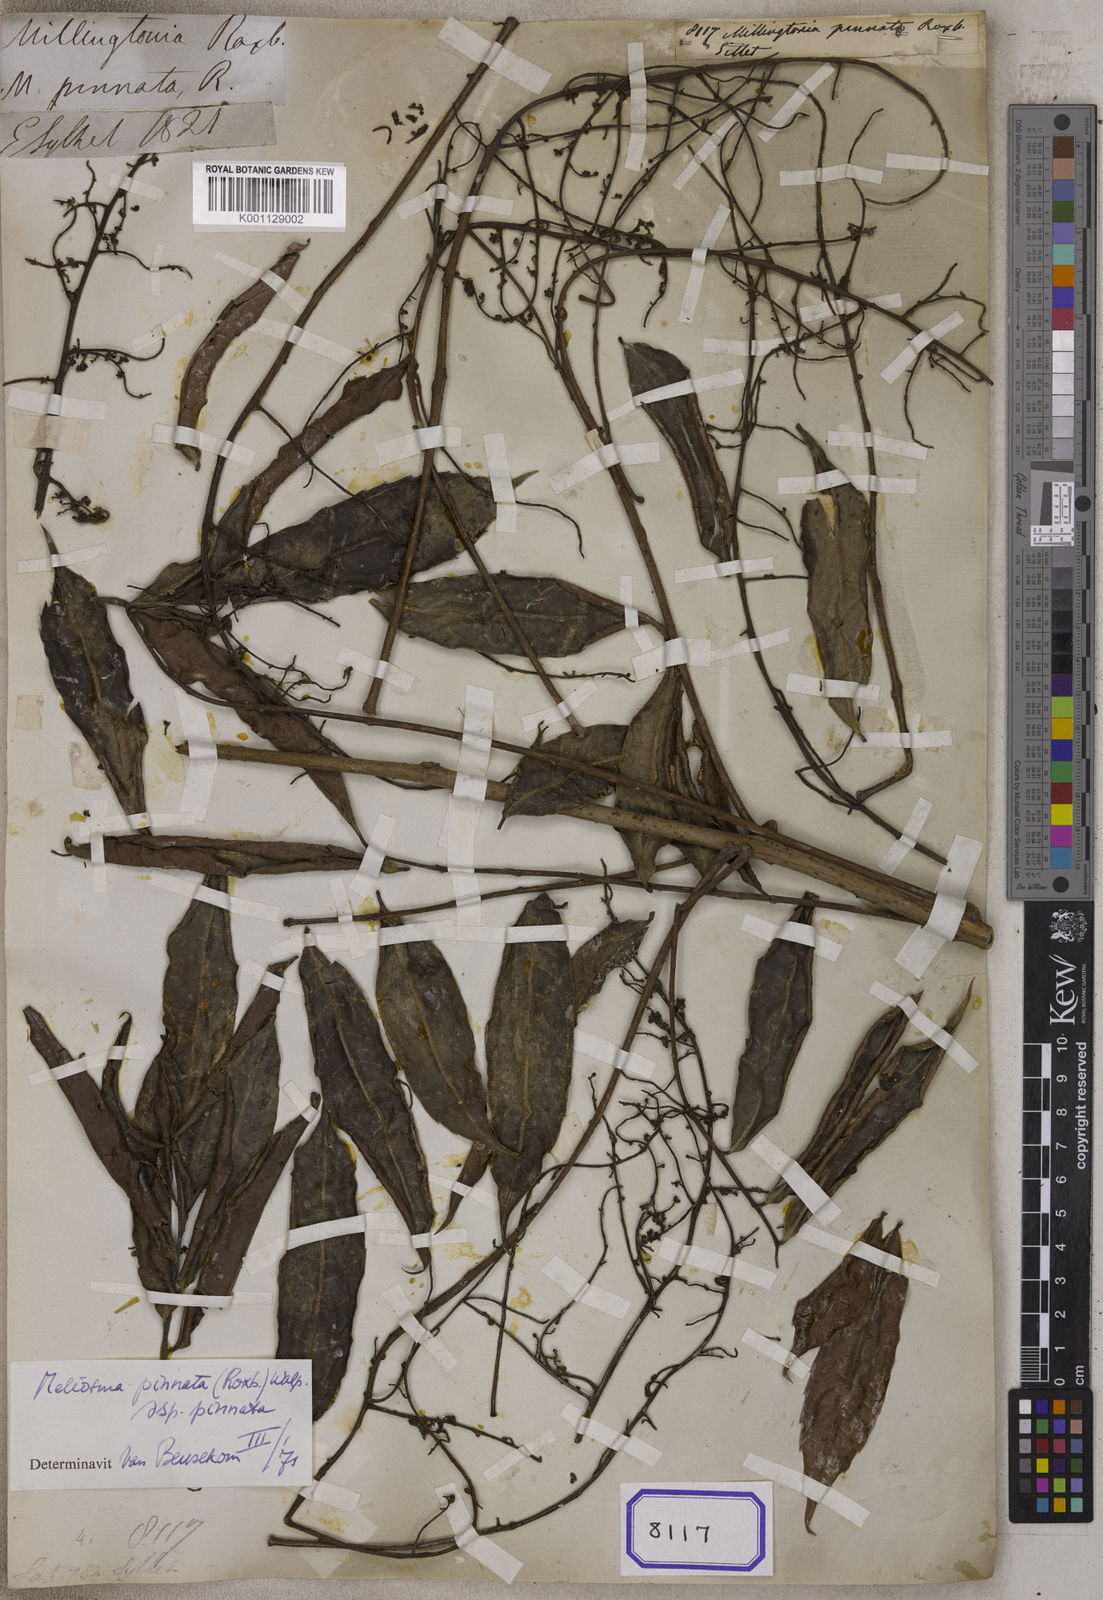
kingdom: Plantae
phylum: Tracheophyta
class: Magnoliopsida
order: Proteales
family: Sabiaceae
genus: Meliosma
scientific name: Meliosma pinnata
